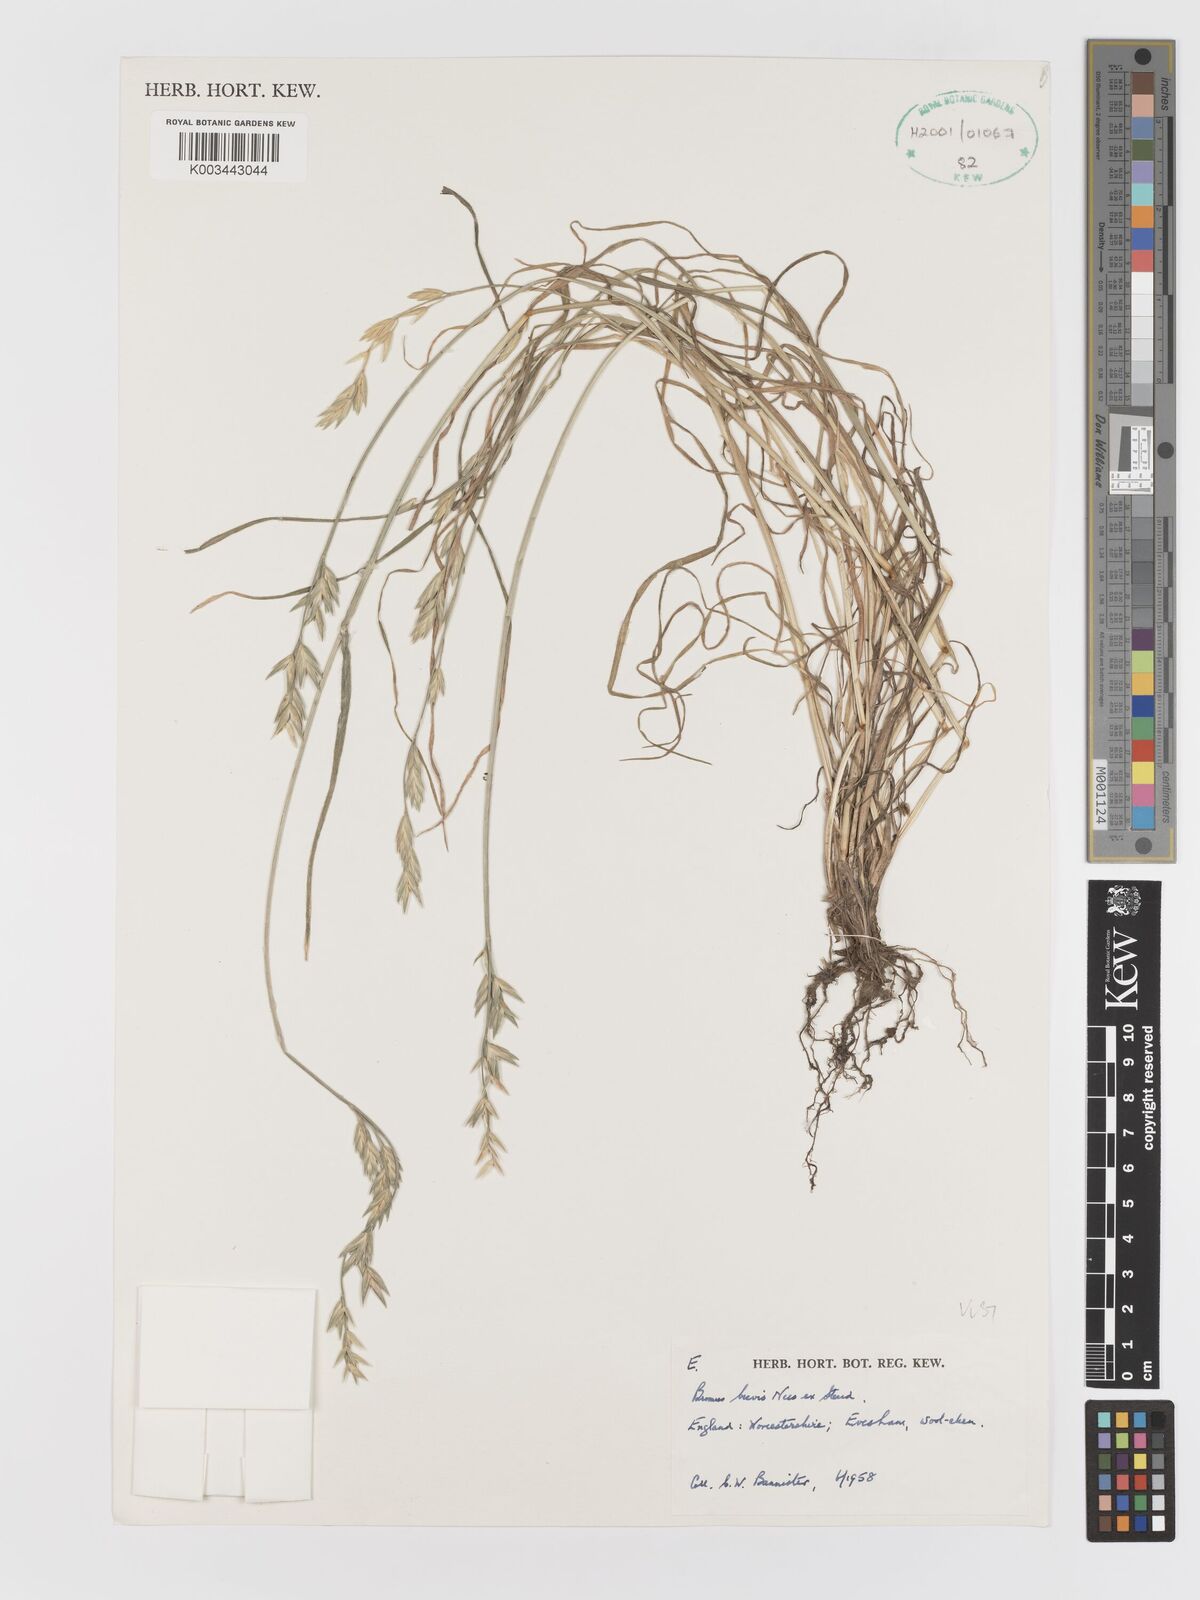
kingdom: Plantae
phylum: Tracheophyta
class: Liliopsida
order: Poales
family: Poaceae
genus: Bromus
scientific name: Bromus catharticus
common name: Rescuegrass
